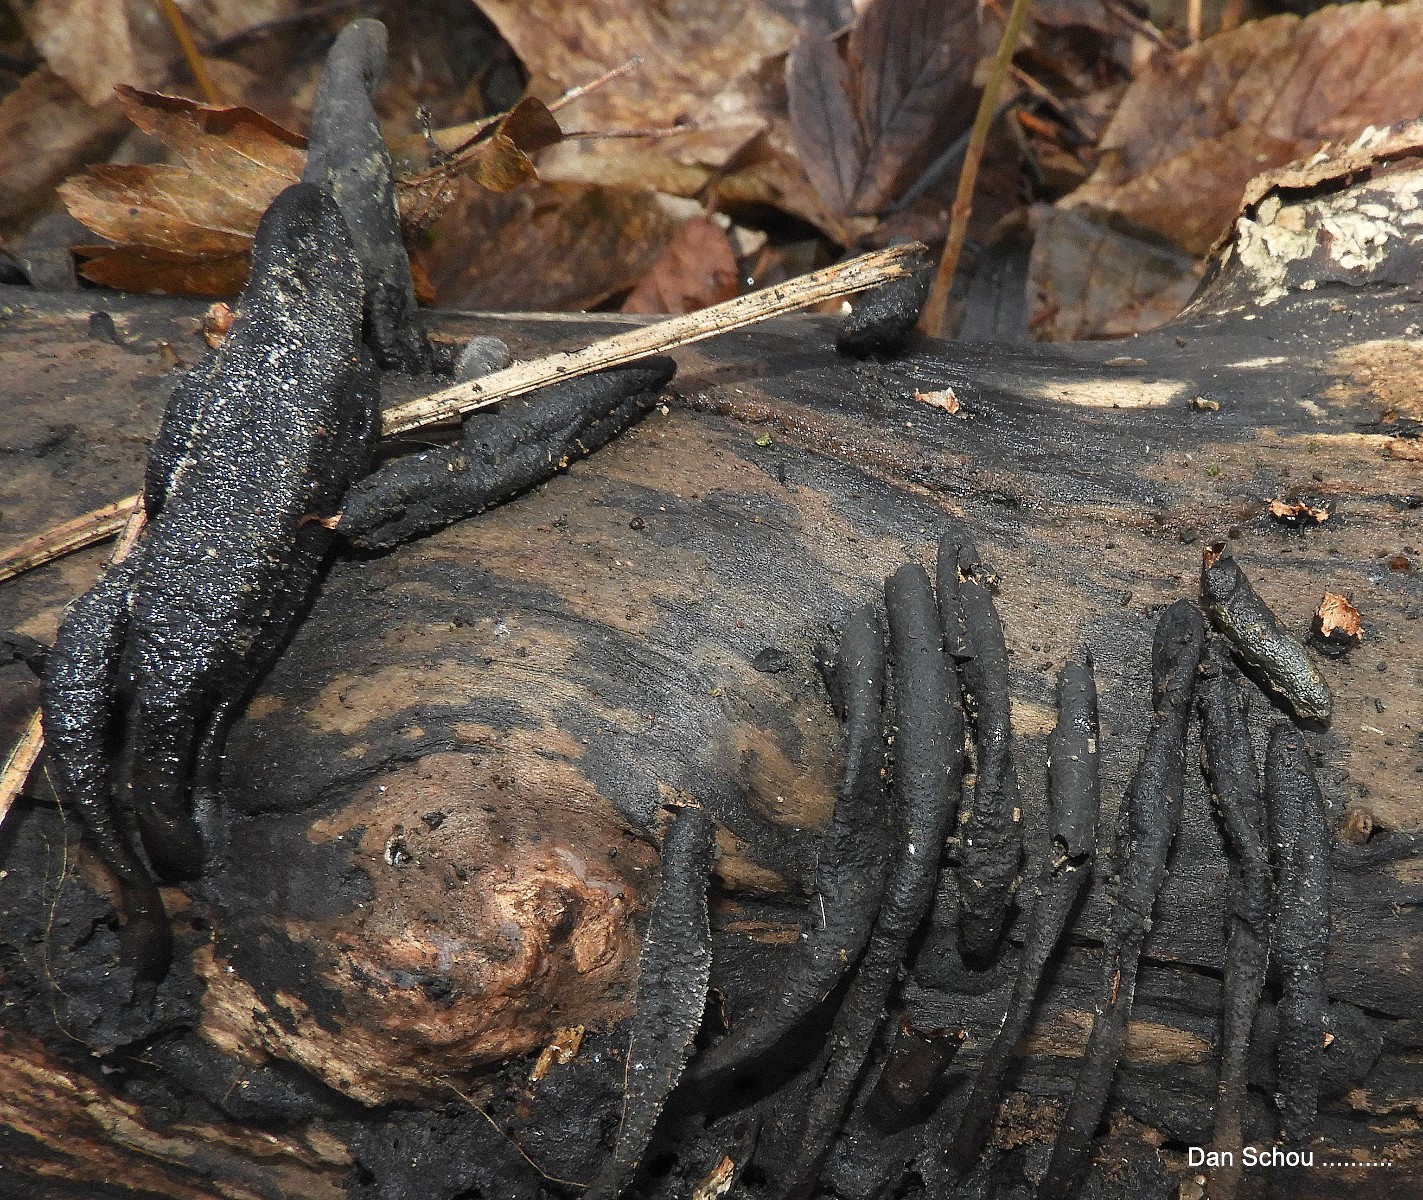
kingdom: Fungi
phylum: Ascomycota
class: Sordariomycetes
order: Xylariales
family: Xylariaceae
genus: Xylaria
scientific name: Xylaria longipes
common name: slank stødsvamp
